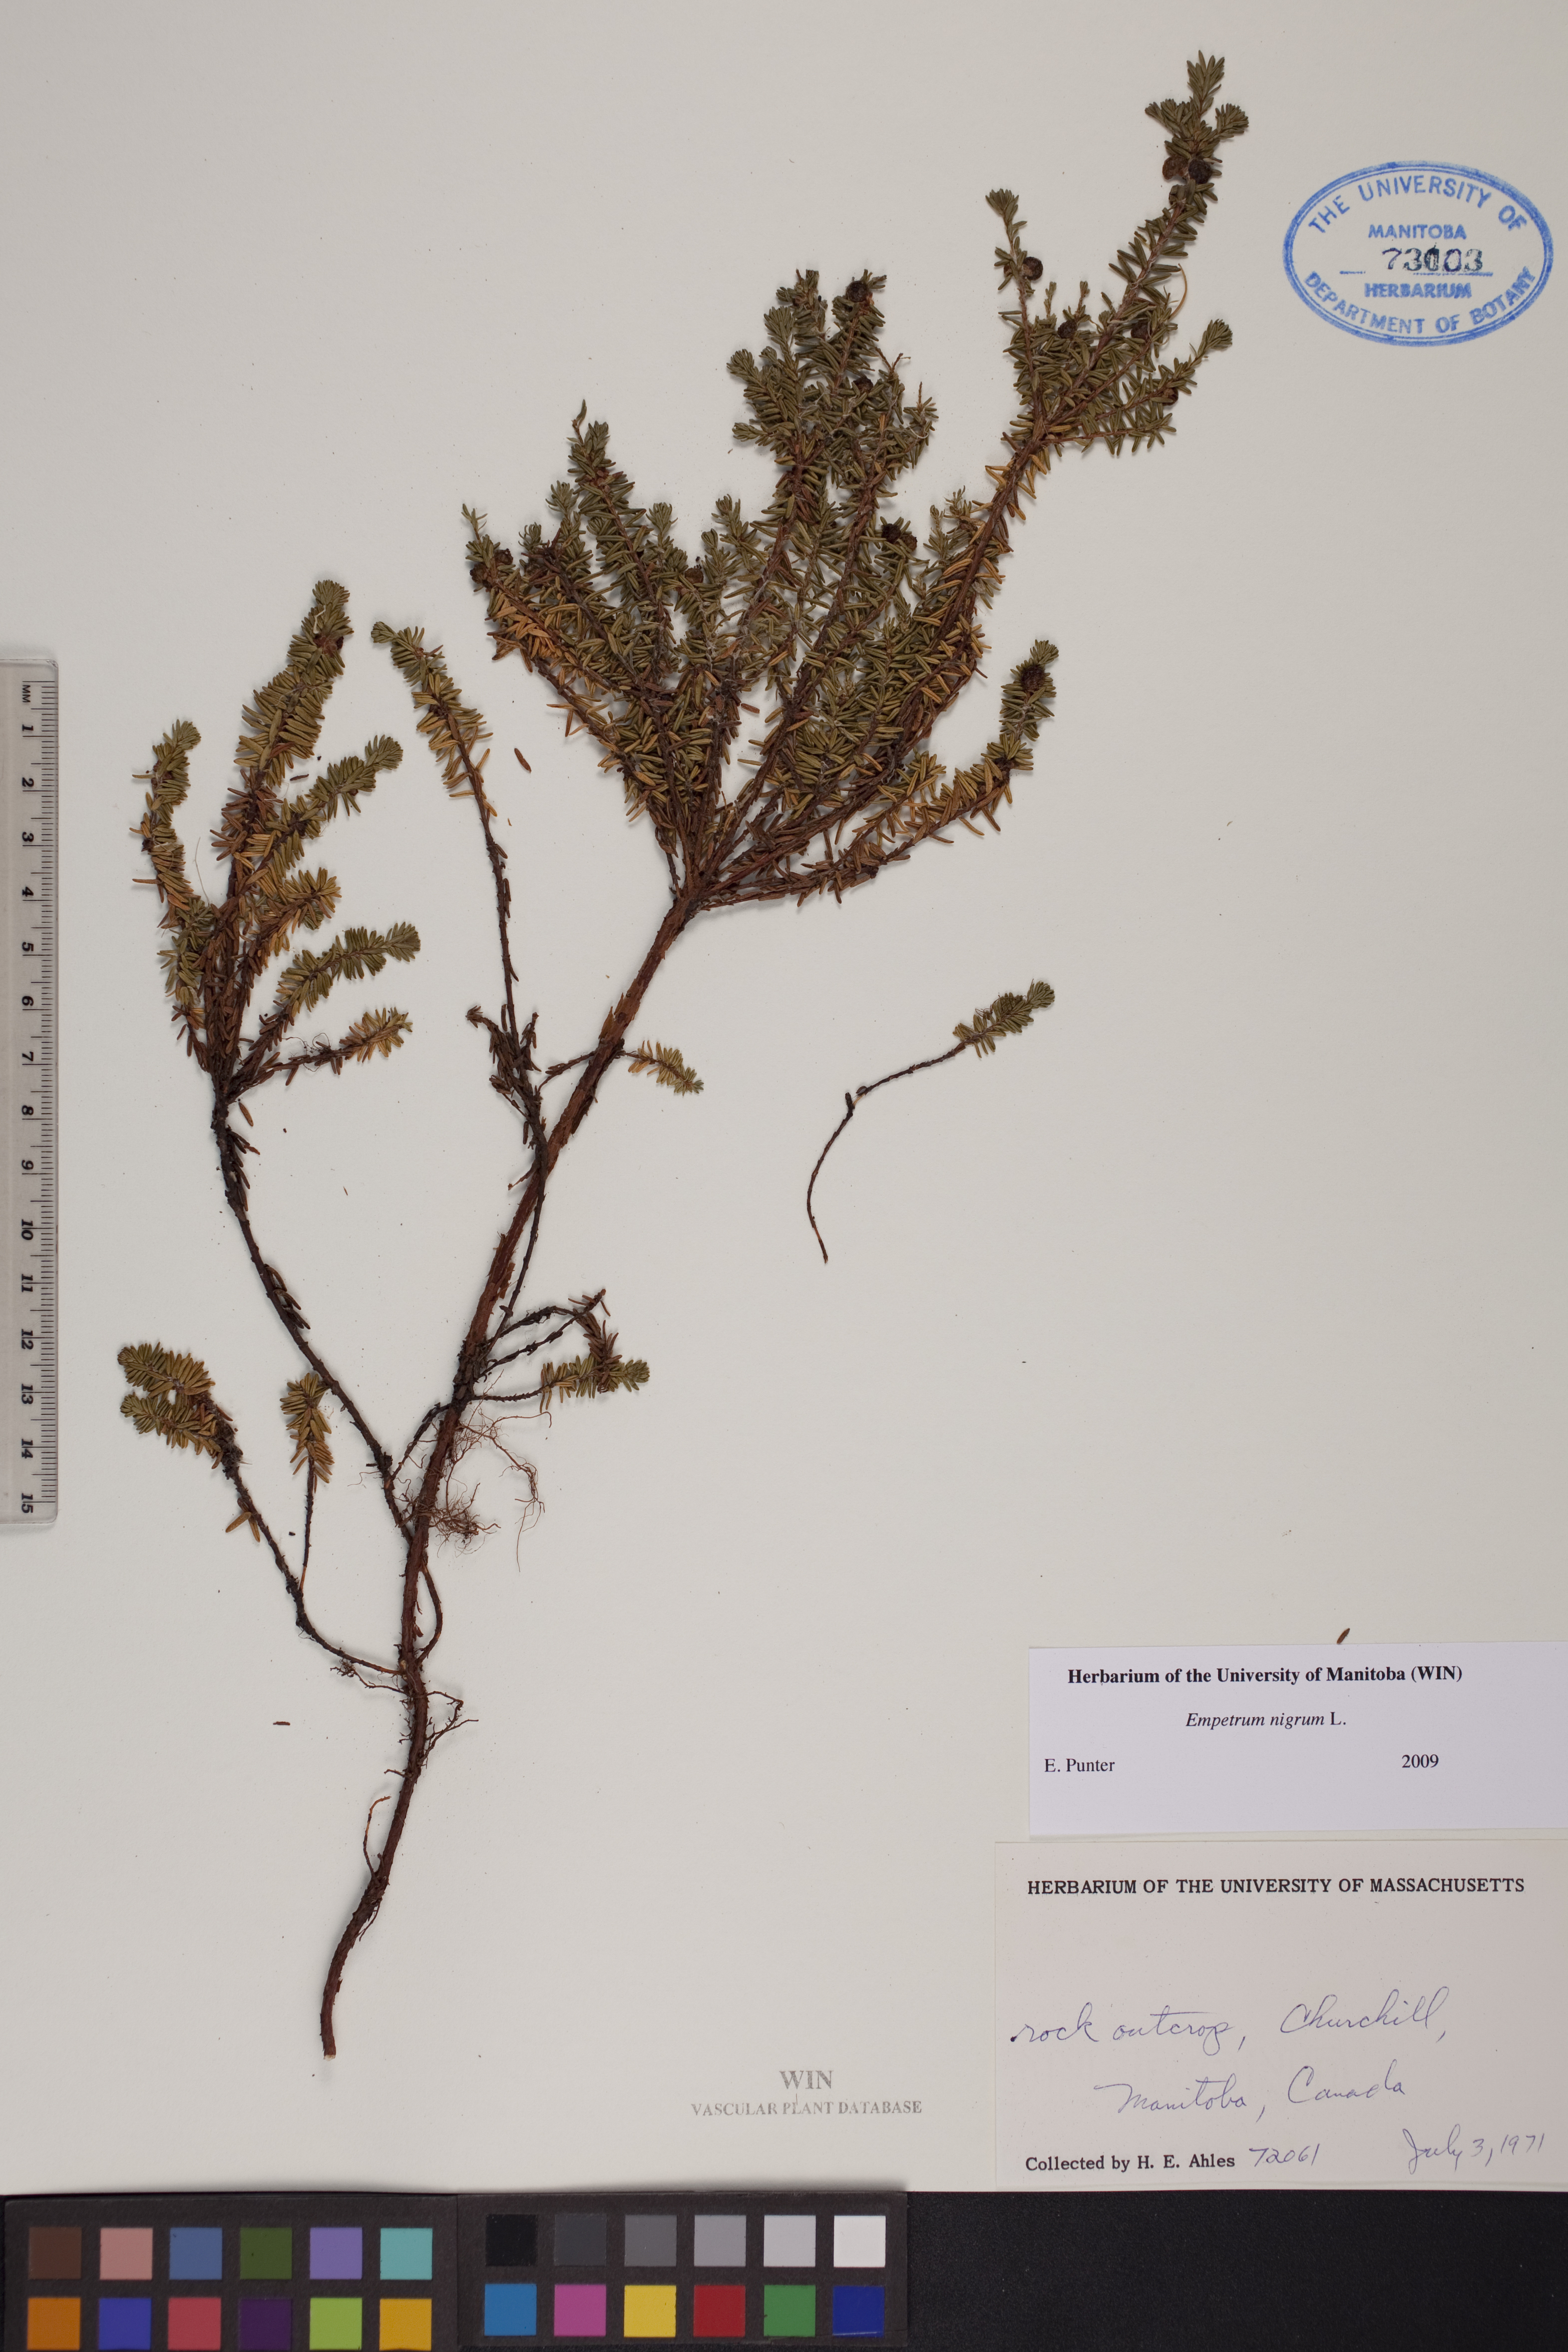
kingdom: Plantae
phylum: Tracheophyta
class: Magnoliopsida
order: Ericales
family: Ericaceae
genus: Empetrum
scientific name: Empetrum nigrum
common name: Black crowberry
